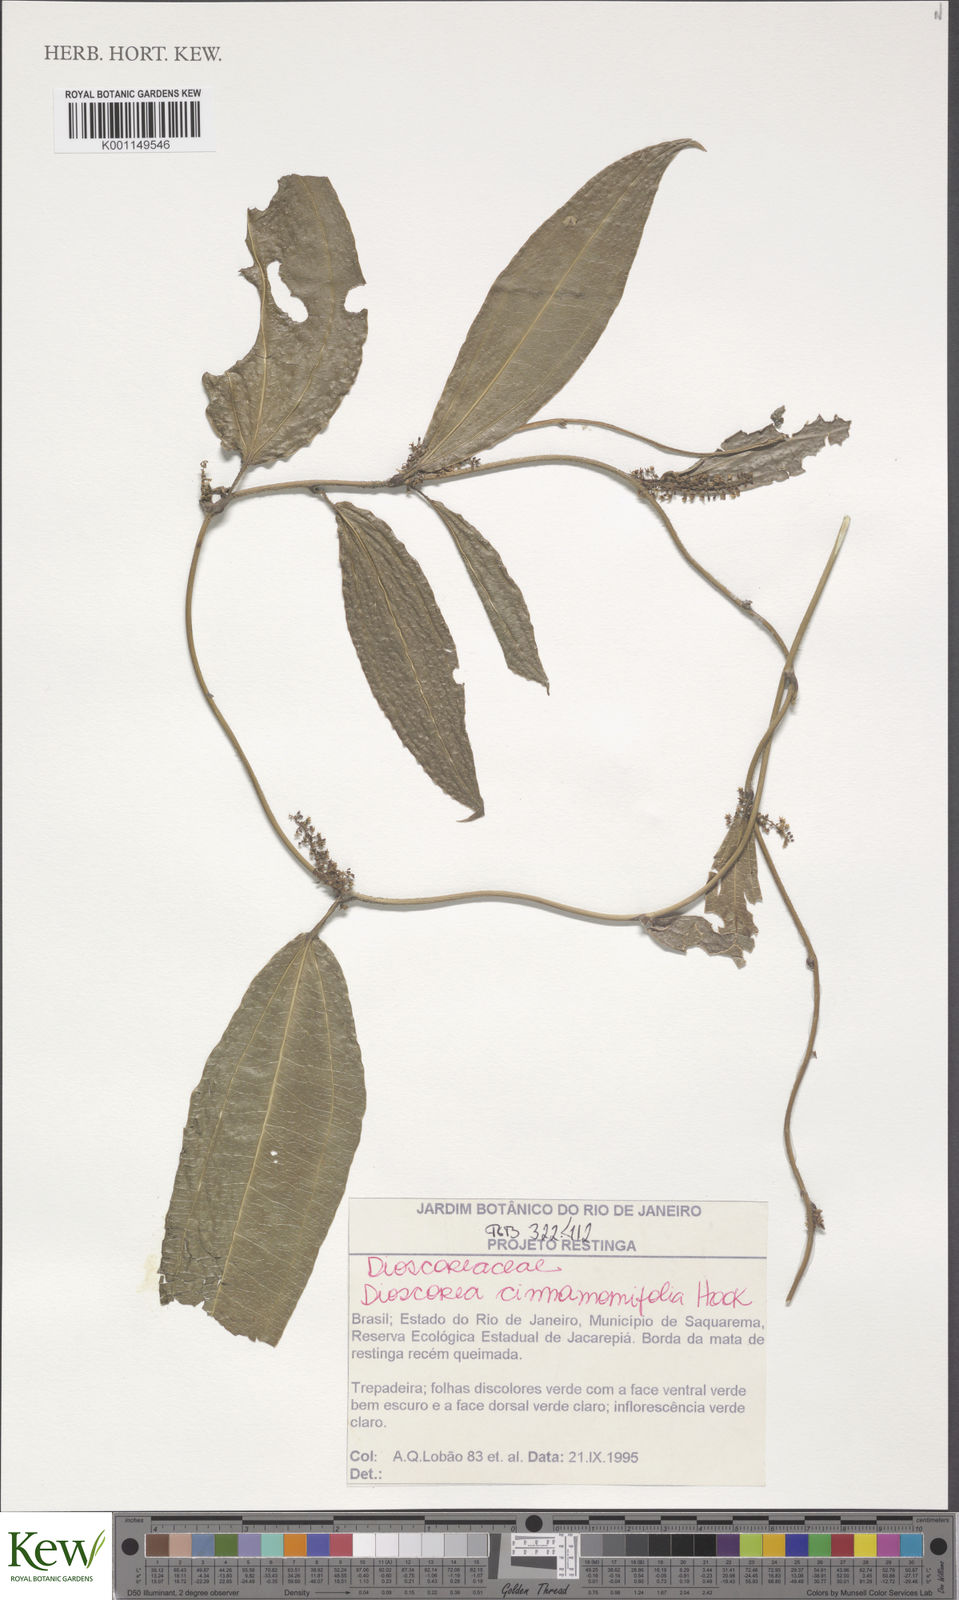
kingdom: Plantae
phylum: Tracheophyta
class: Liliopsida
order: Dioscoreales
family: Dioscoreaceae
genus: Dioscorea
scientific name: Dioscorea cinnamomifolia
